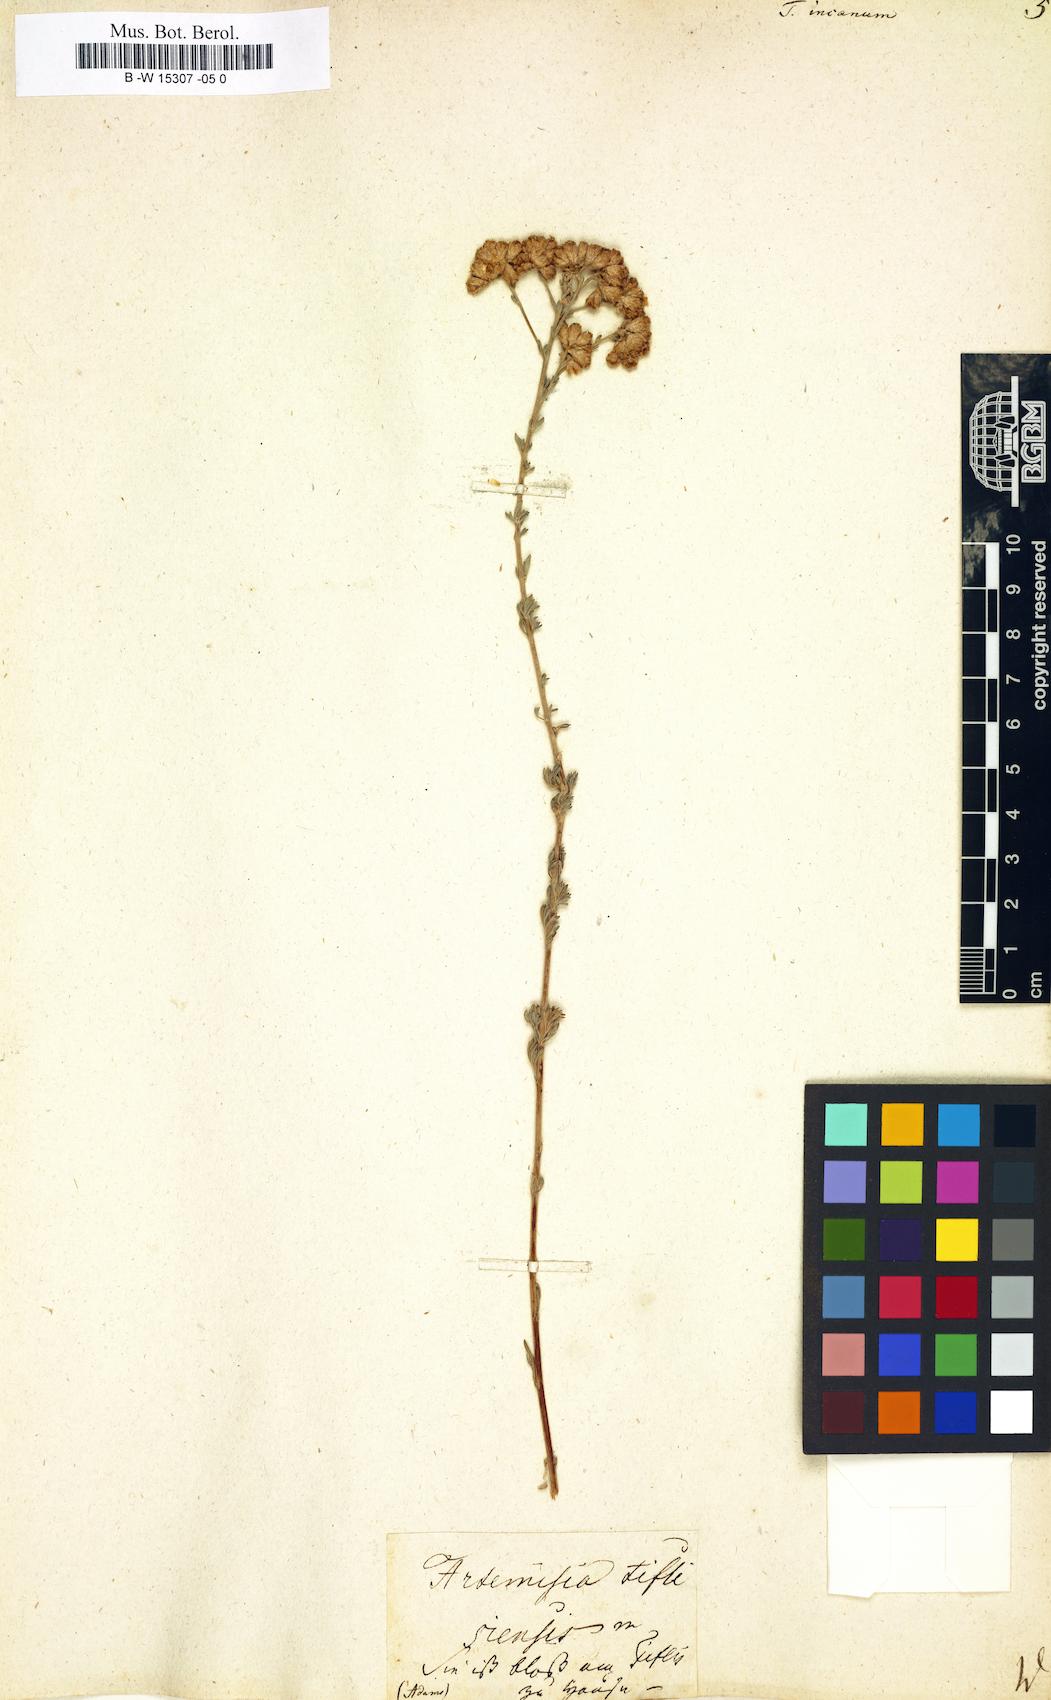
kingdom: Plantae
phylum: Tracheophyta
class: Magnoliopsida
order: Asterales
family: Asteraceae
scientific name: Asteraceae
